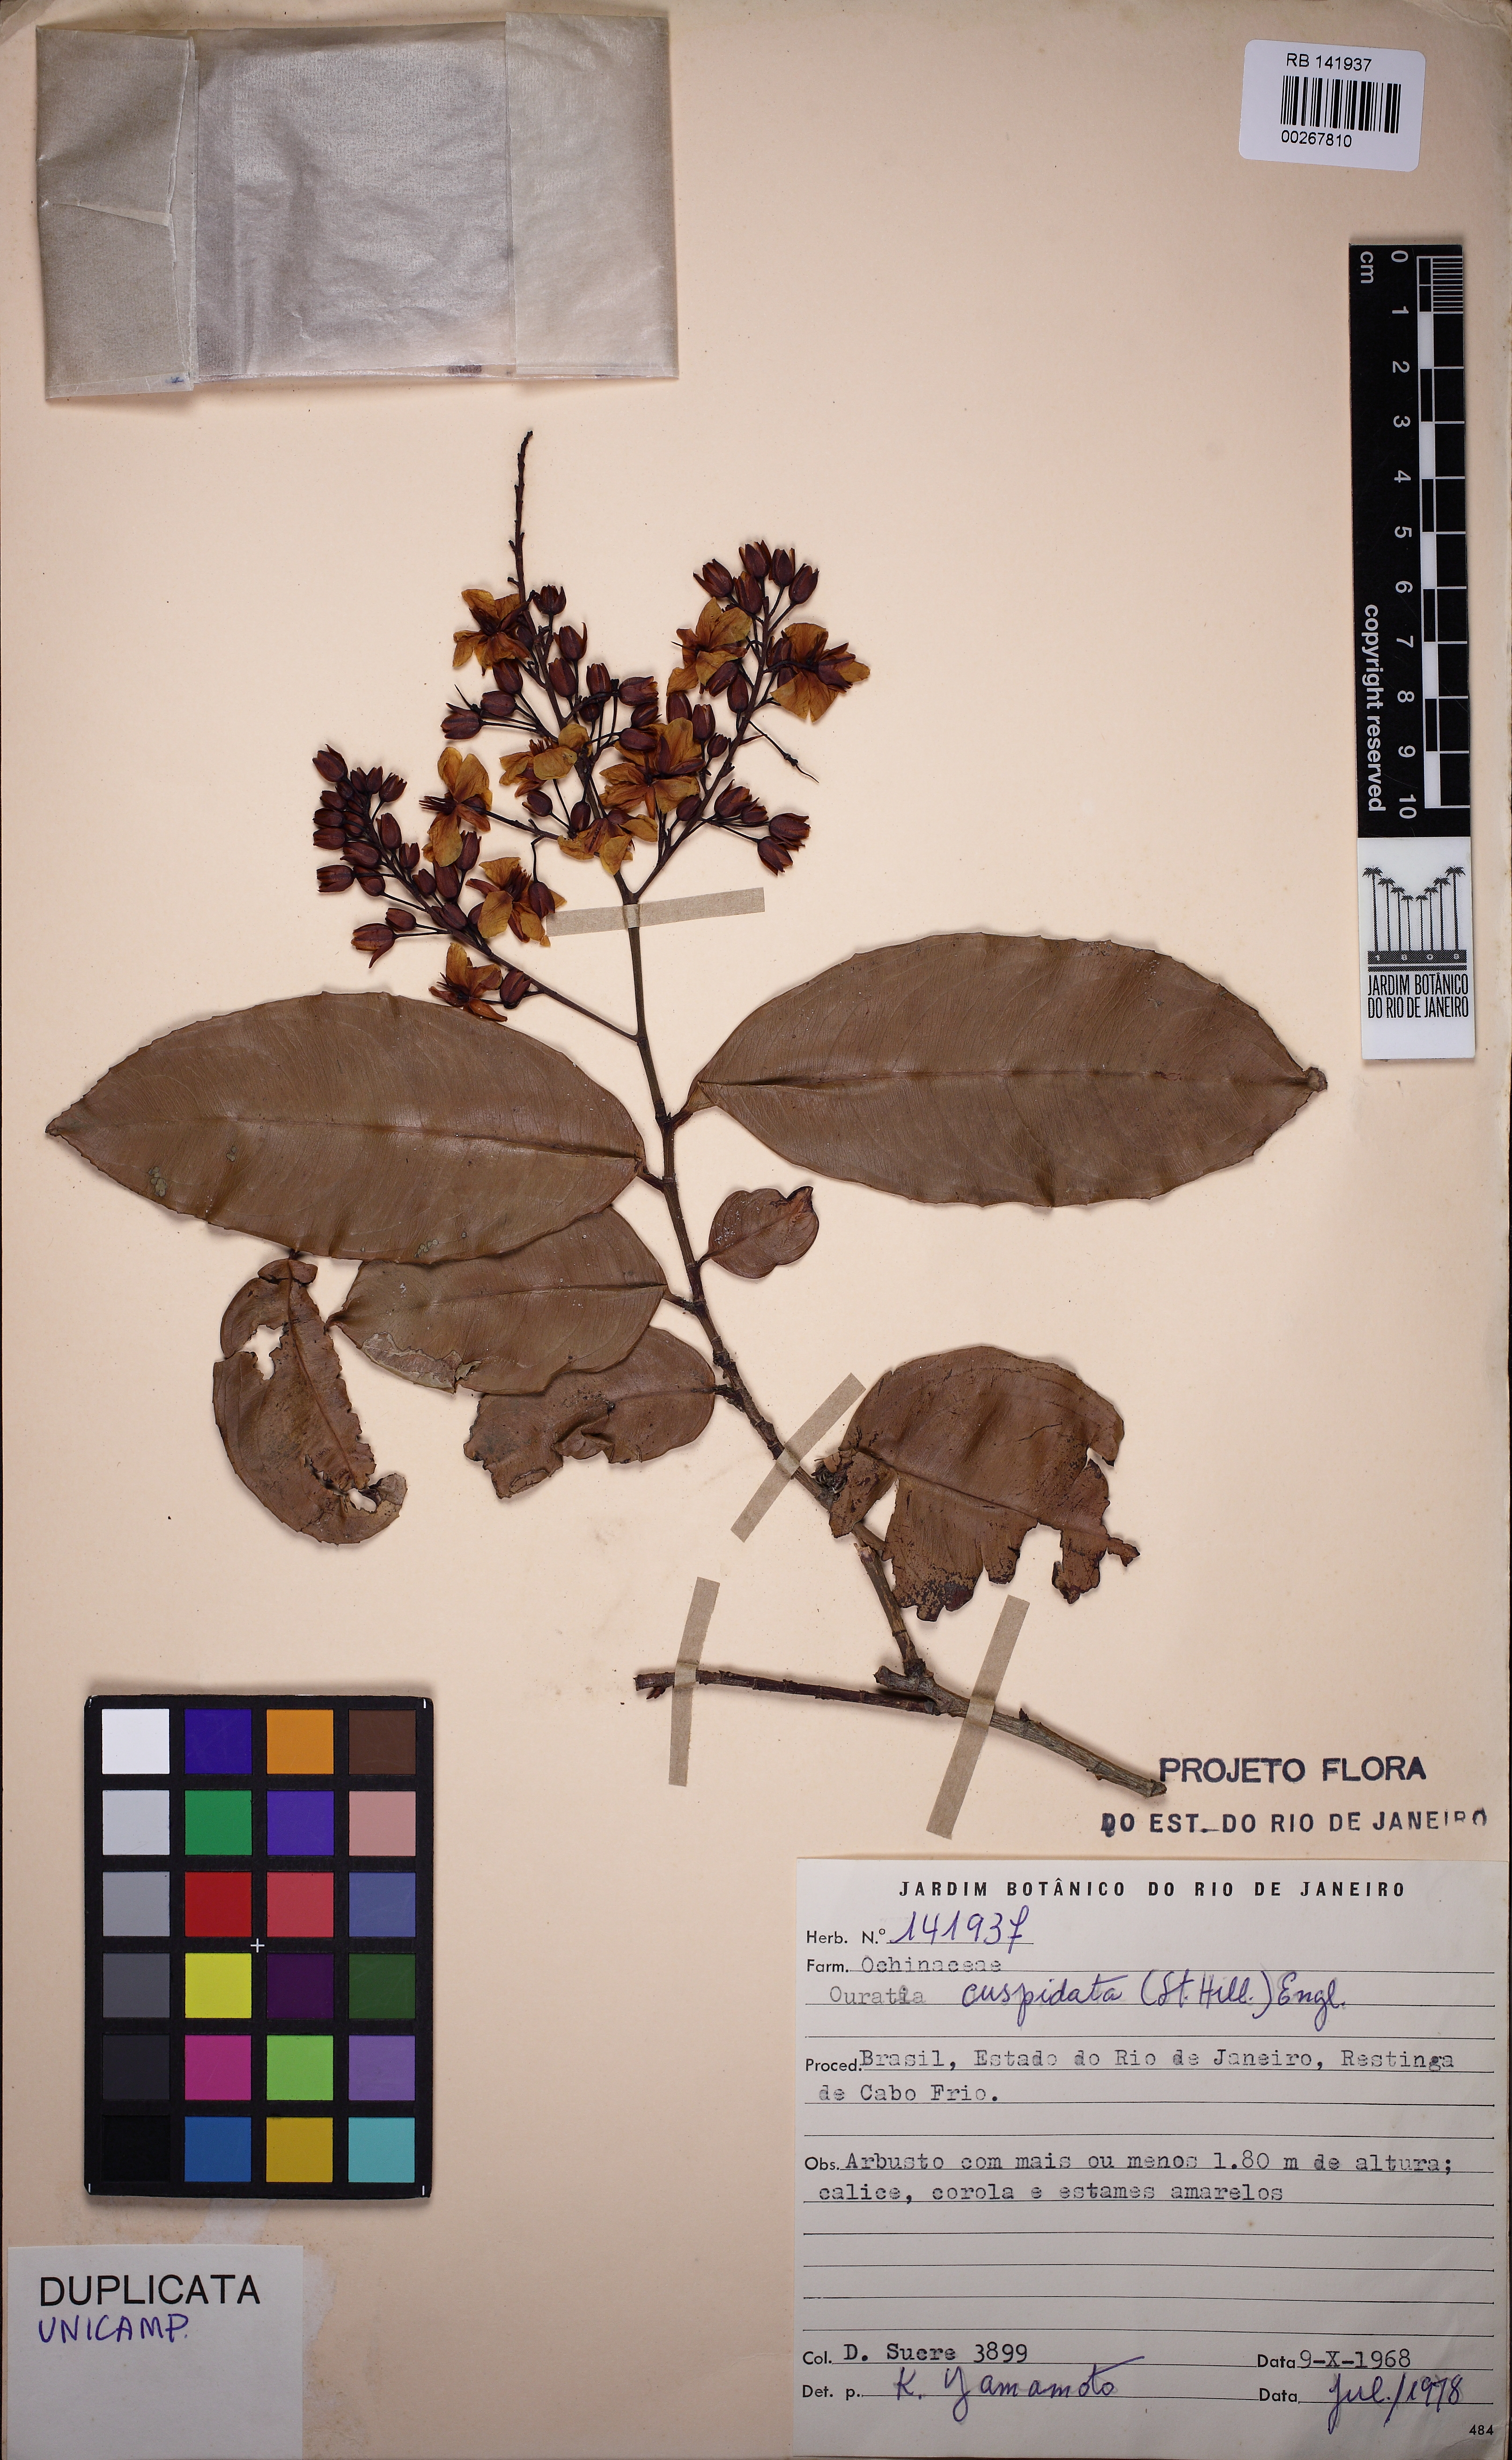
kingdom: Plantae
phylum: Tracheophyta
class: Magnoliopsida
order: Malpighiales
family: Ochnaceae
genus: Ouratea
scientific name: Ouratea cuspidata
